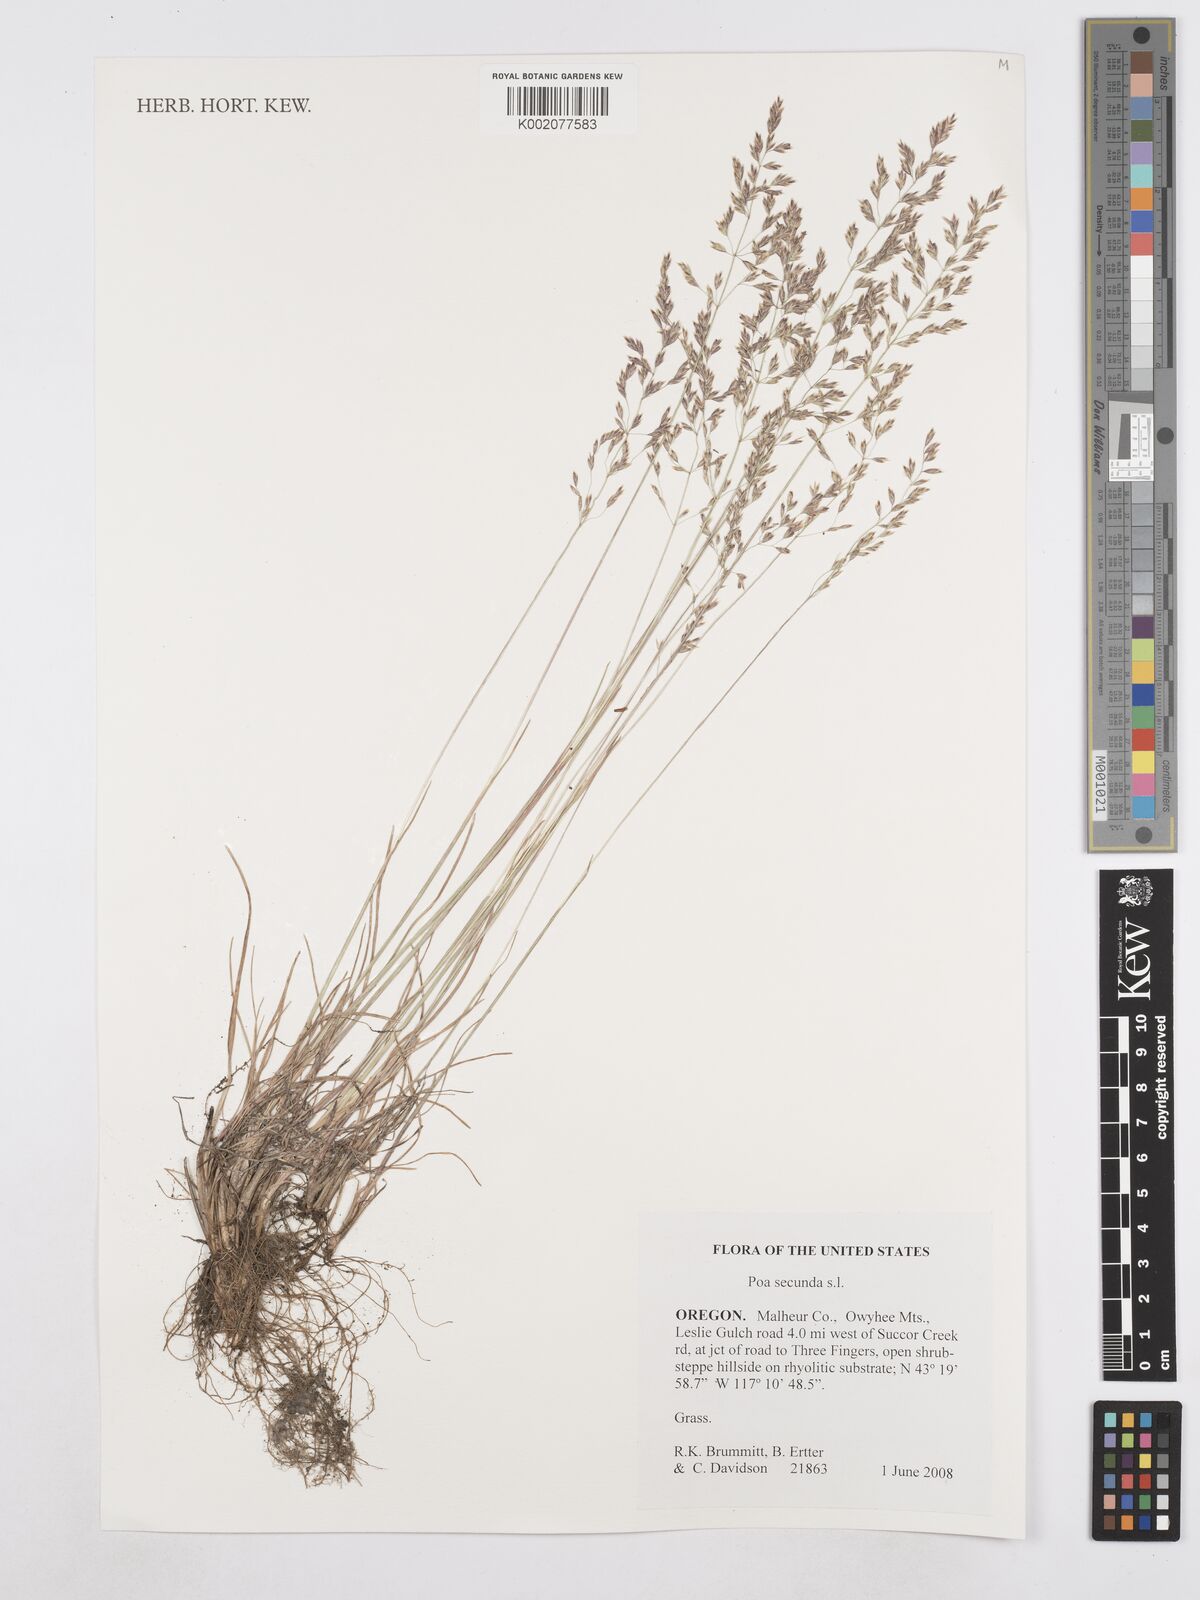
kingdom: Plantae
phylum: Tracheophyta
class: Liliopsida
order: Poales
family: Poaceae
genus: Poa
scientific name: Poa secunda
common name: Sandberg bluegrass
